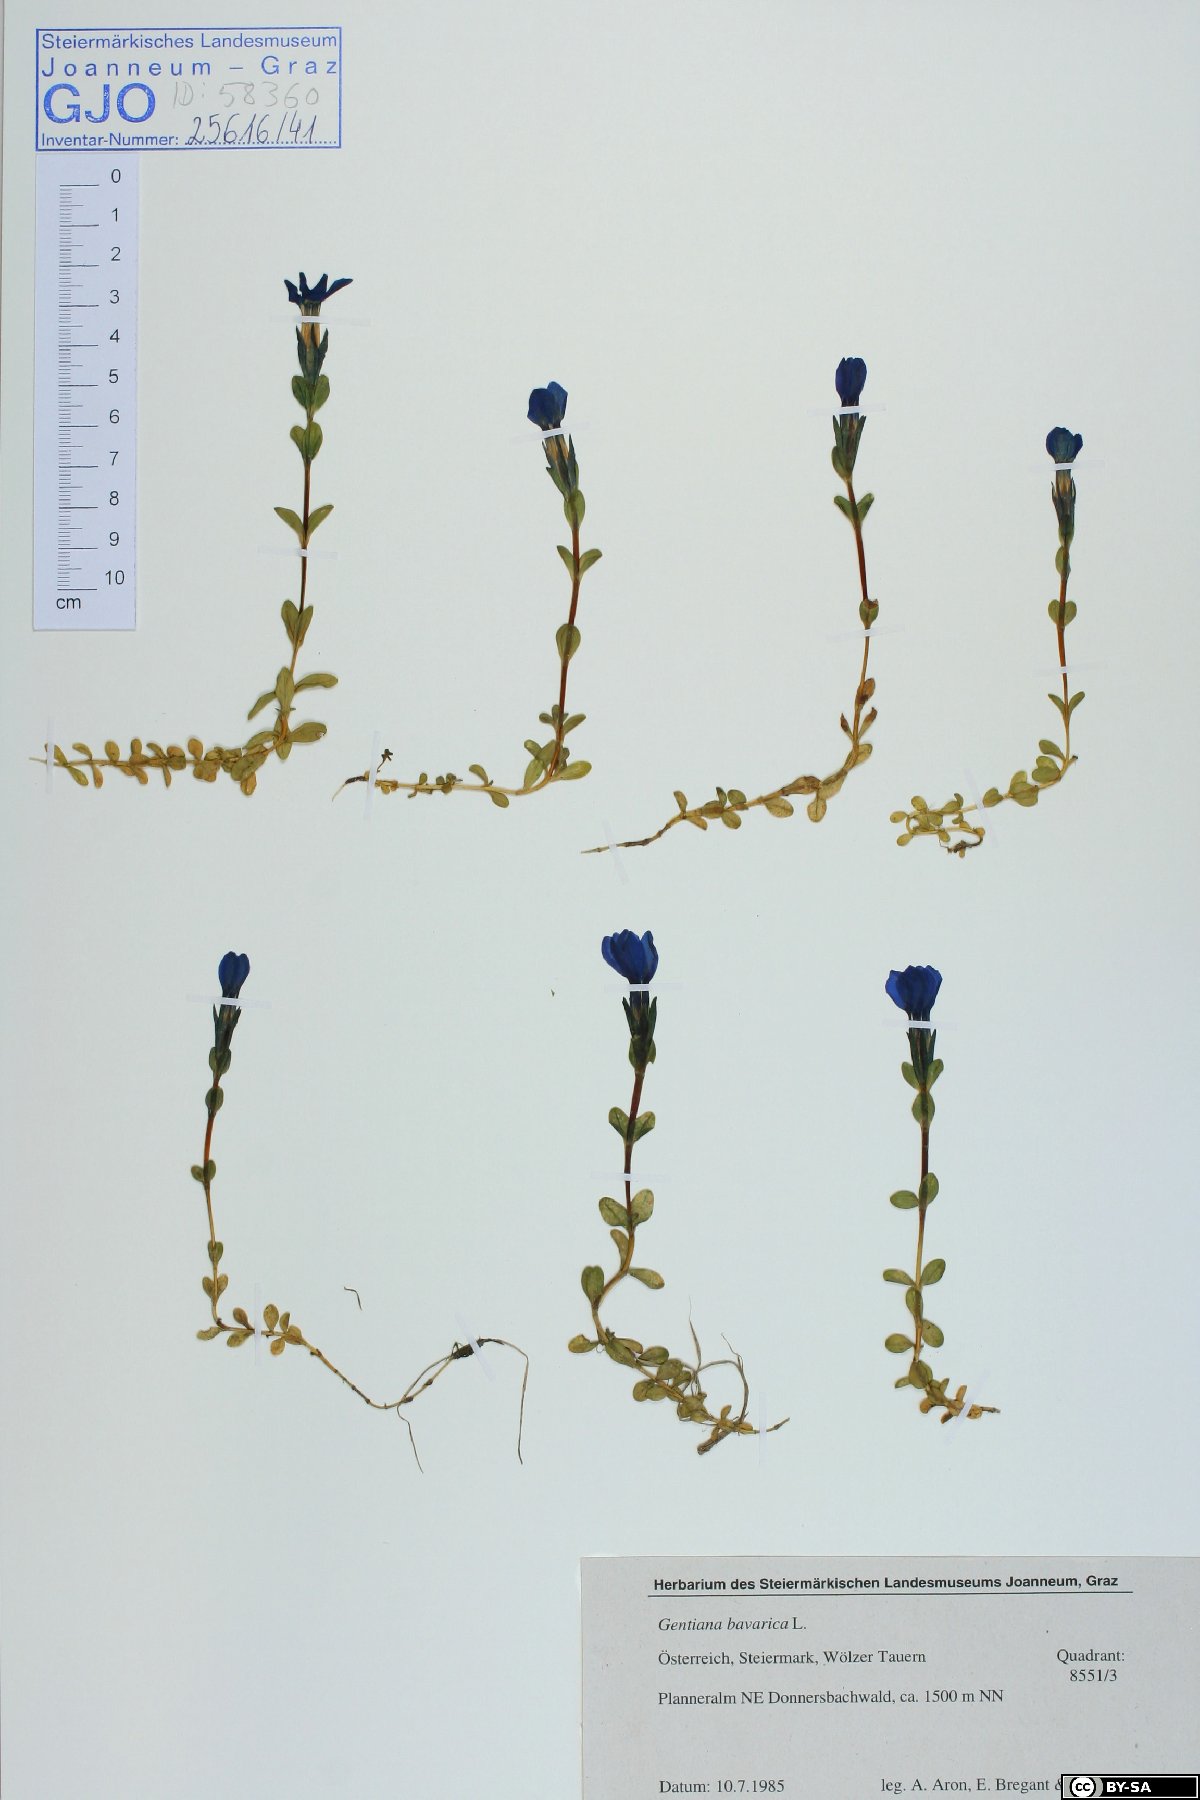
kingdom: Plantae
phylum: Tracheophyta
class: Magnoliopsida
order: Gentianales
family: Gentianaceae
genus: Gentiana
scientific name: Gentiana bavarica
